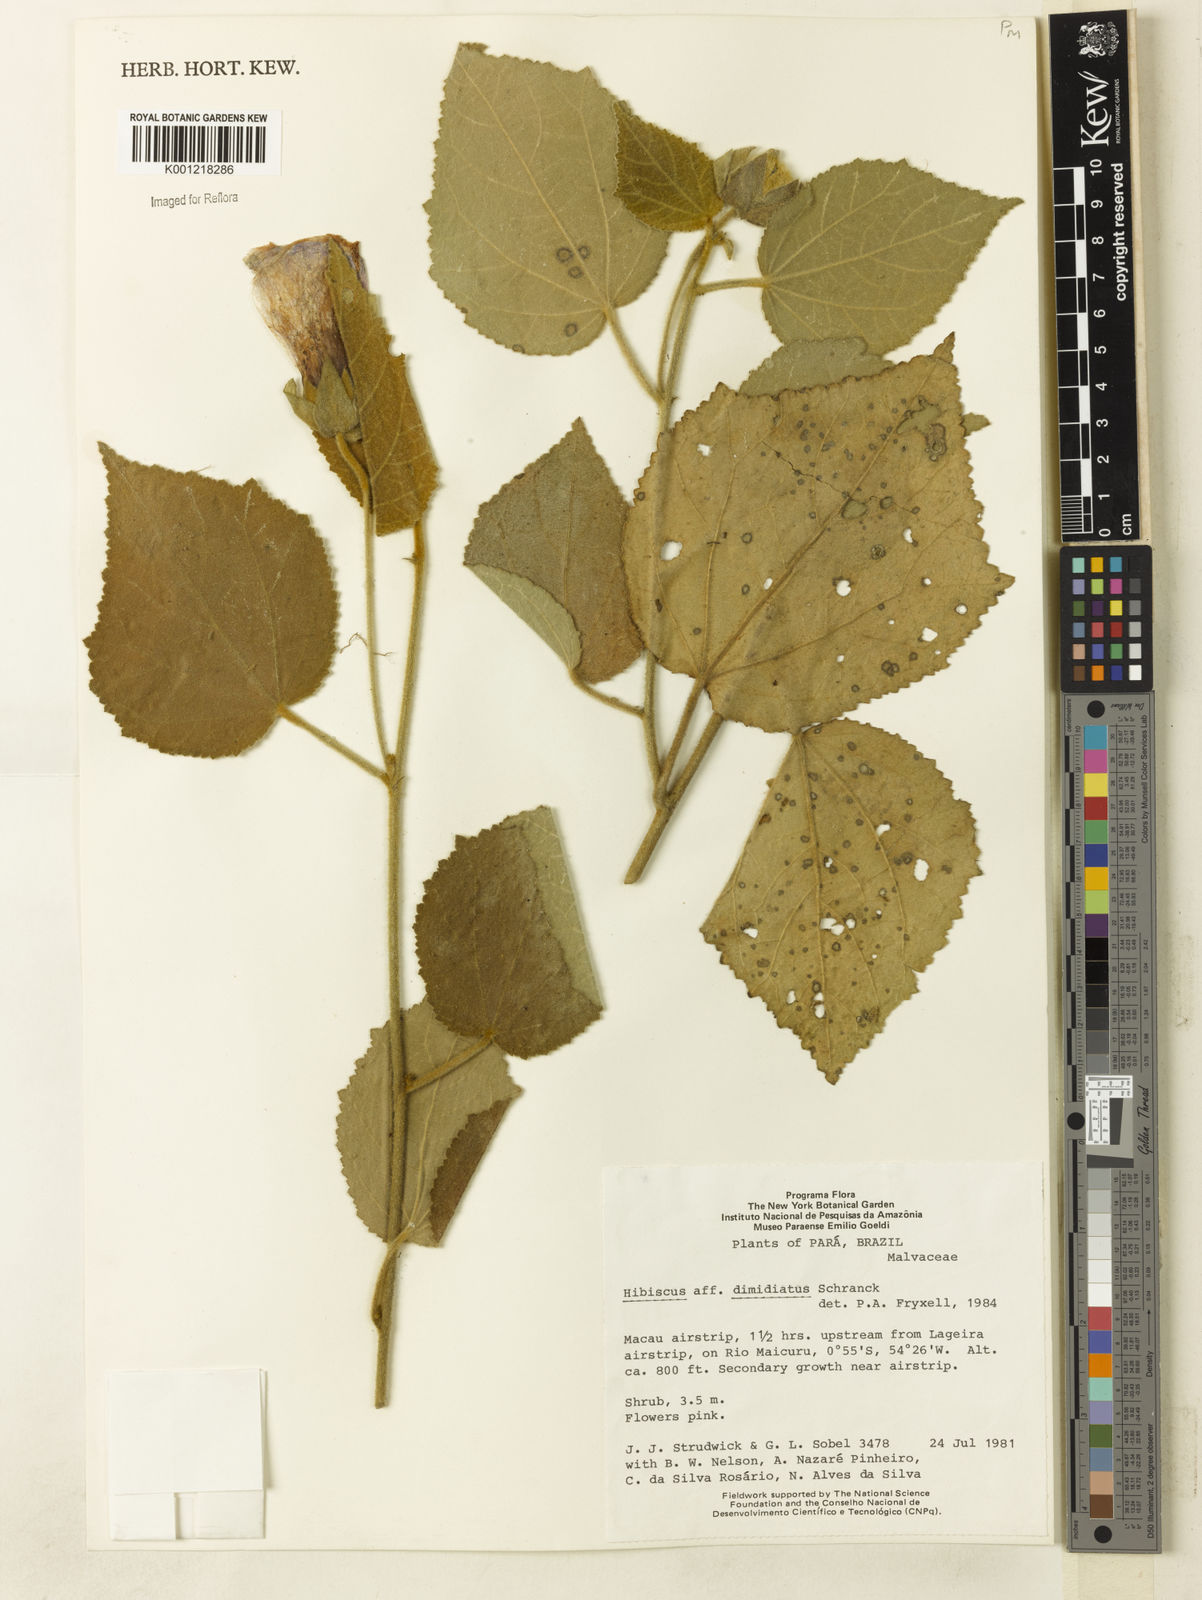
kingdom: Plantae
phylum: Tracheophyta
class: Magnoliopsida
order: Malvales
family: Malvaceae
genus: Hibiscus
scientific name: Hibiscus dimidiatus
